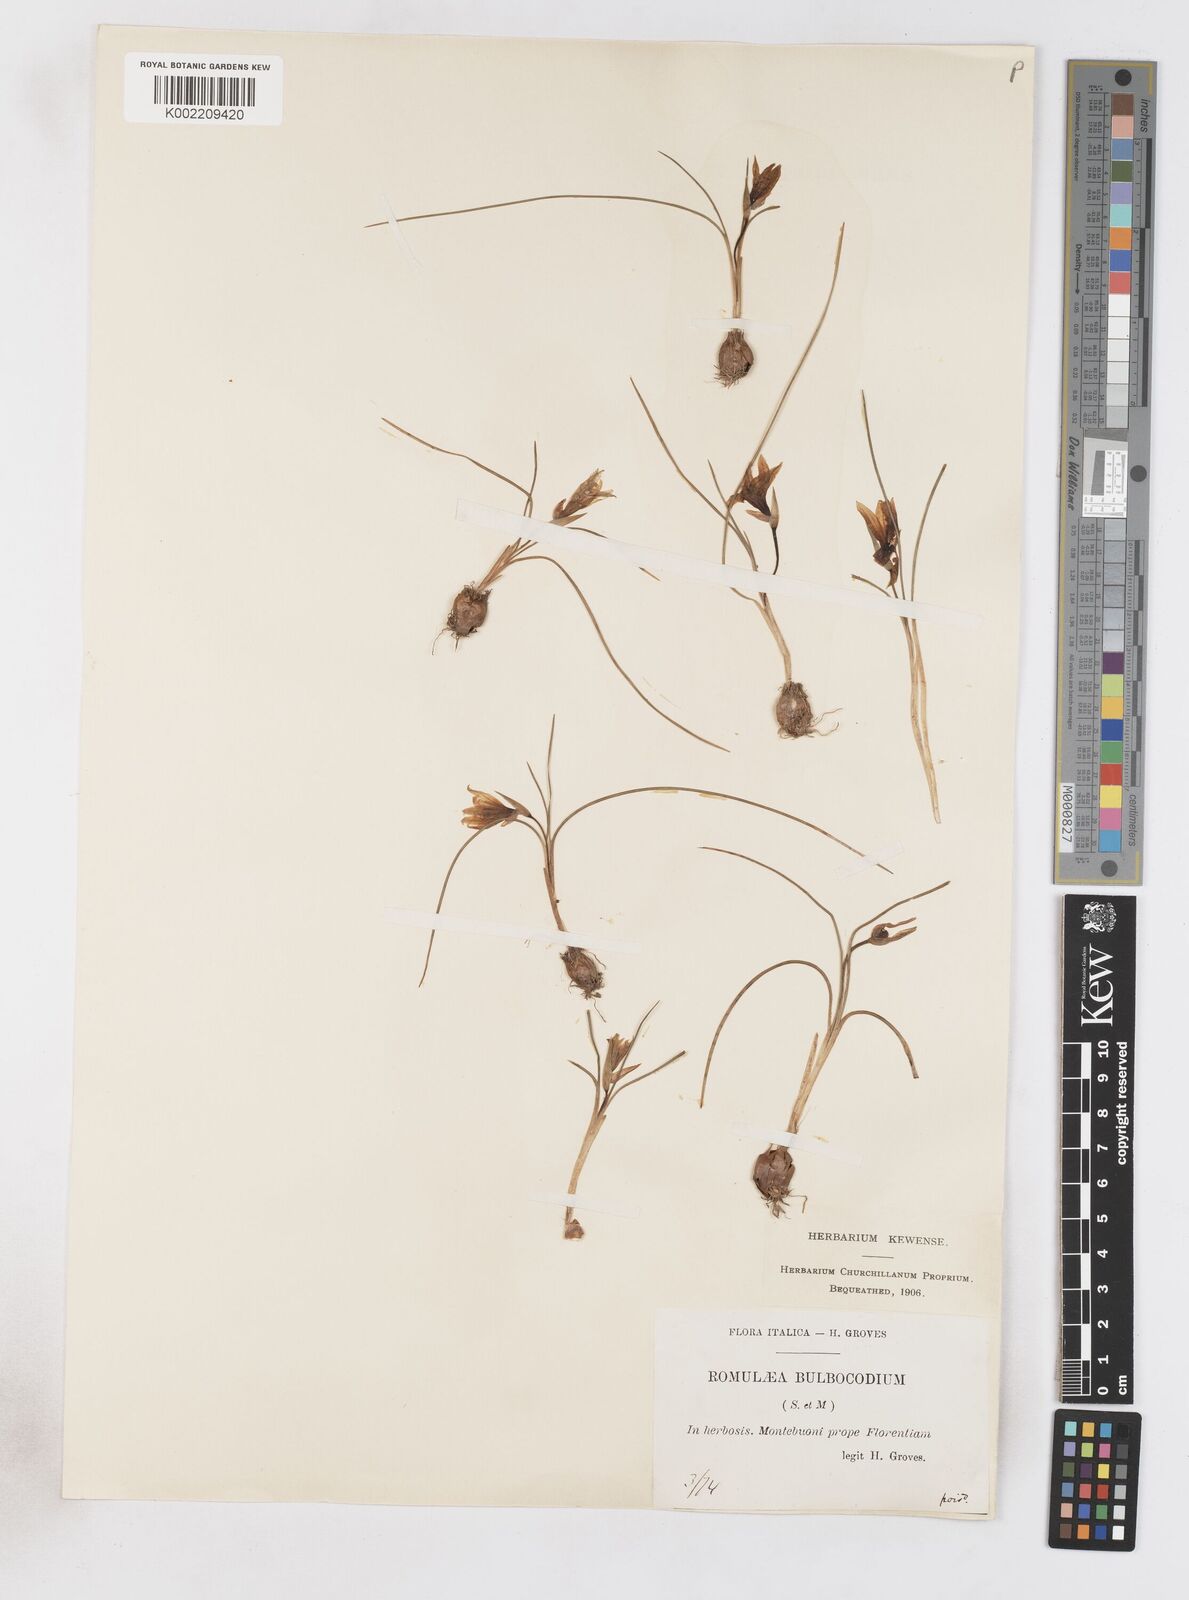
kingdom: Plantae
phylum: Tracheophyta
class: Liliopsida
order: Asparagales
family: Iridaceae
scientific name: Iridaceae
